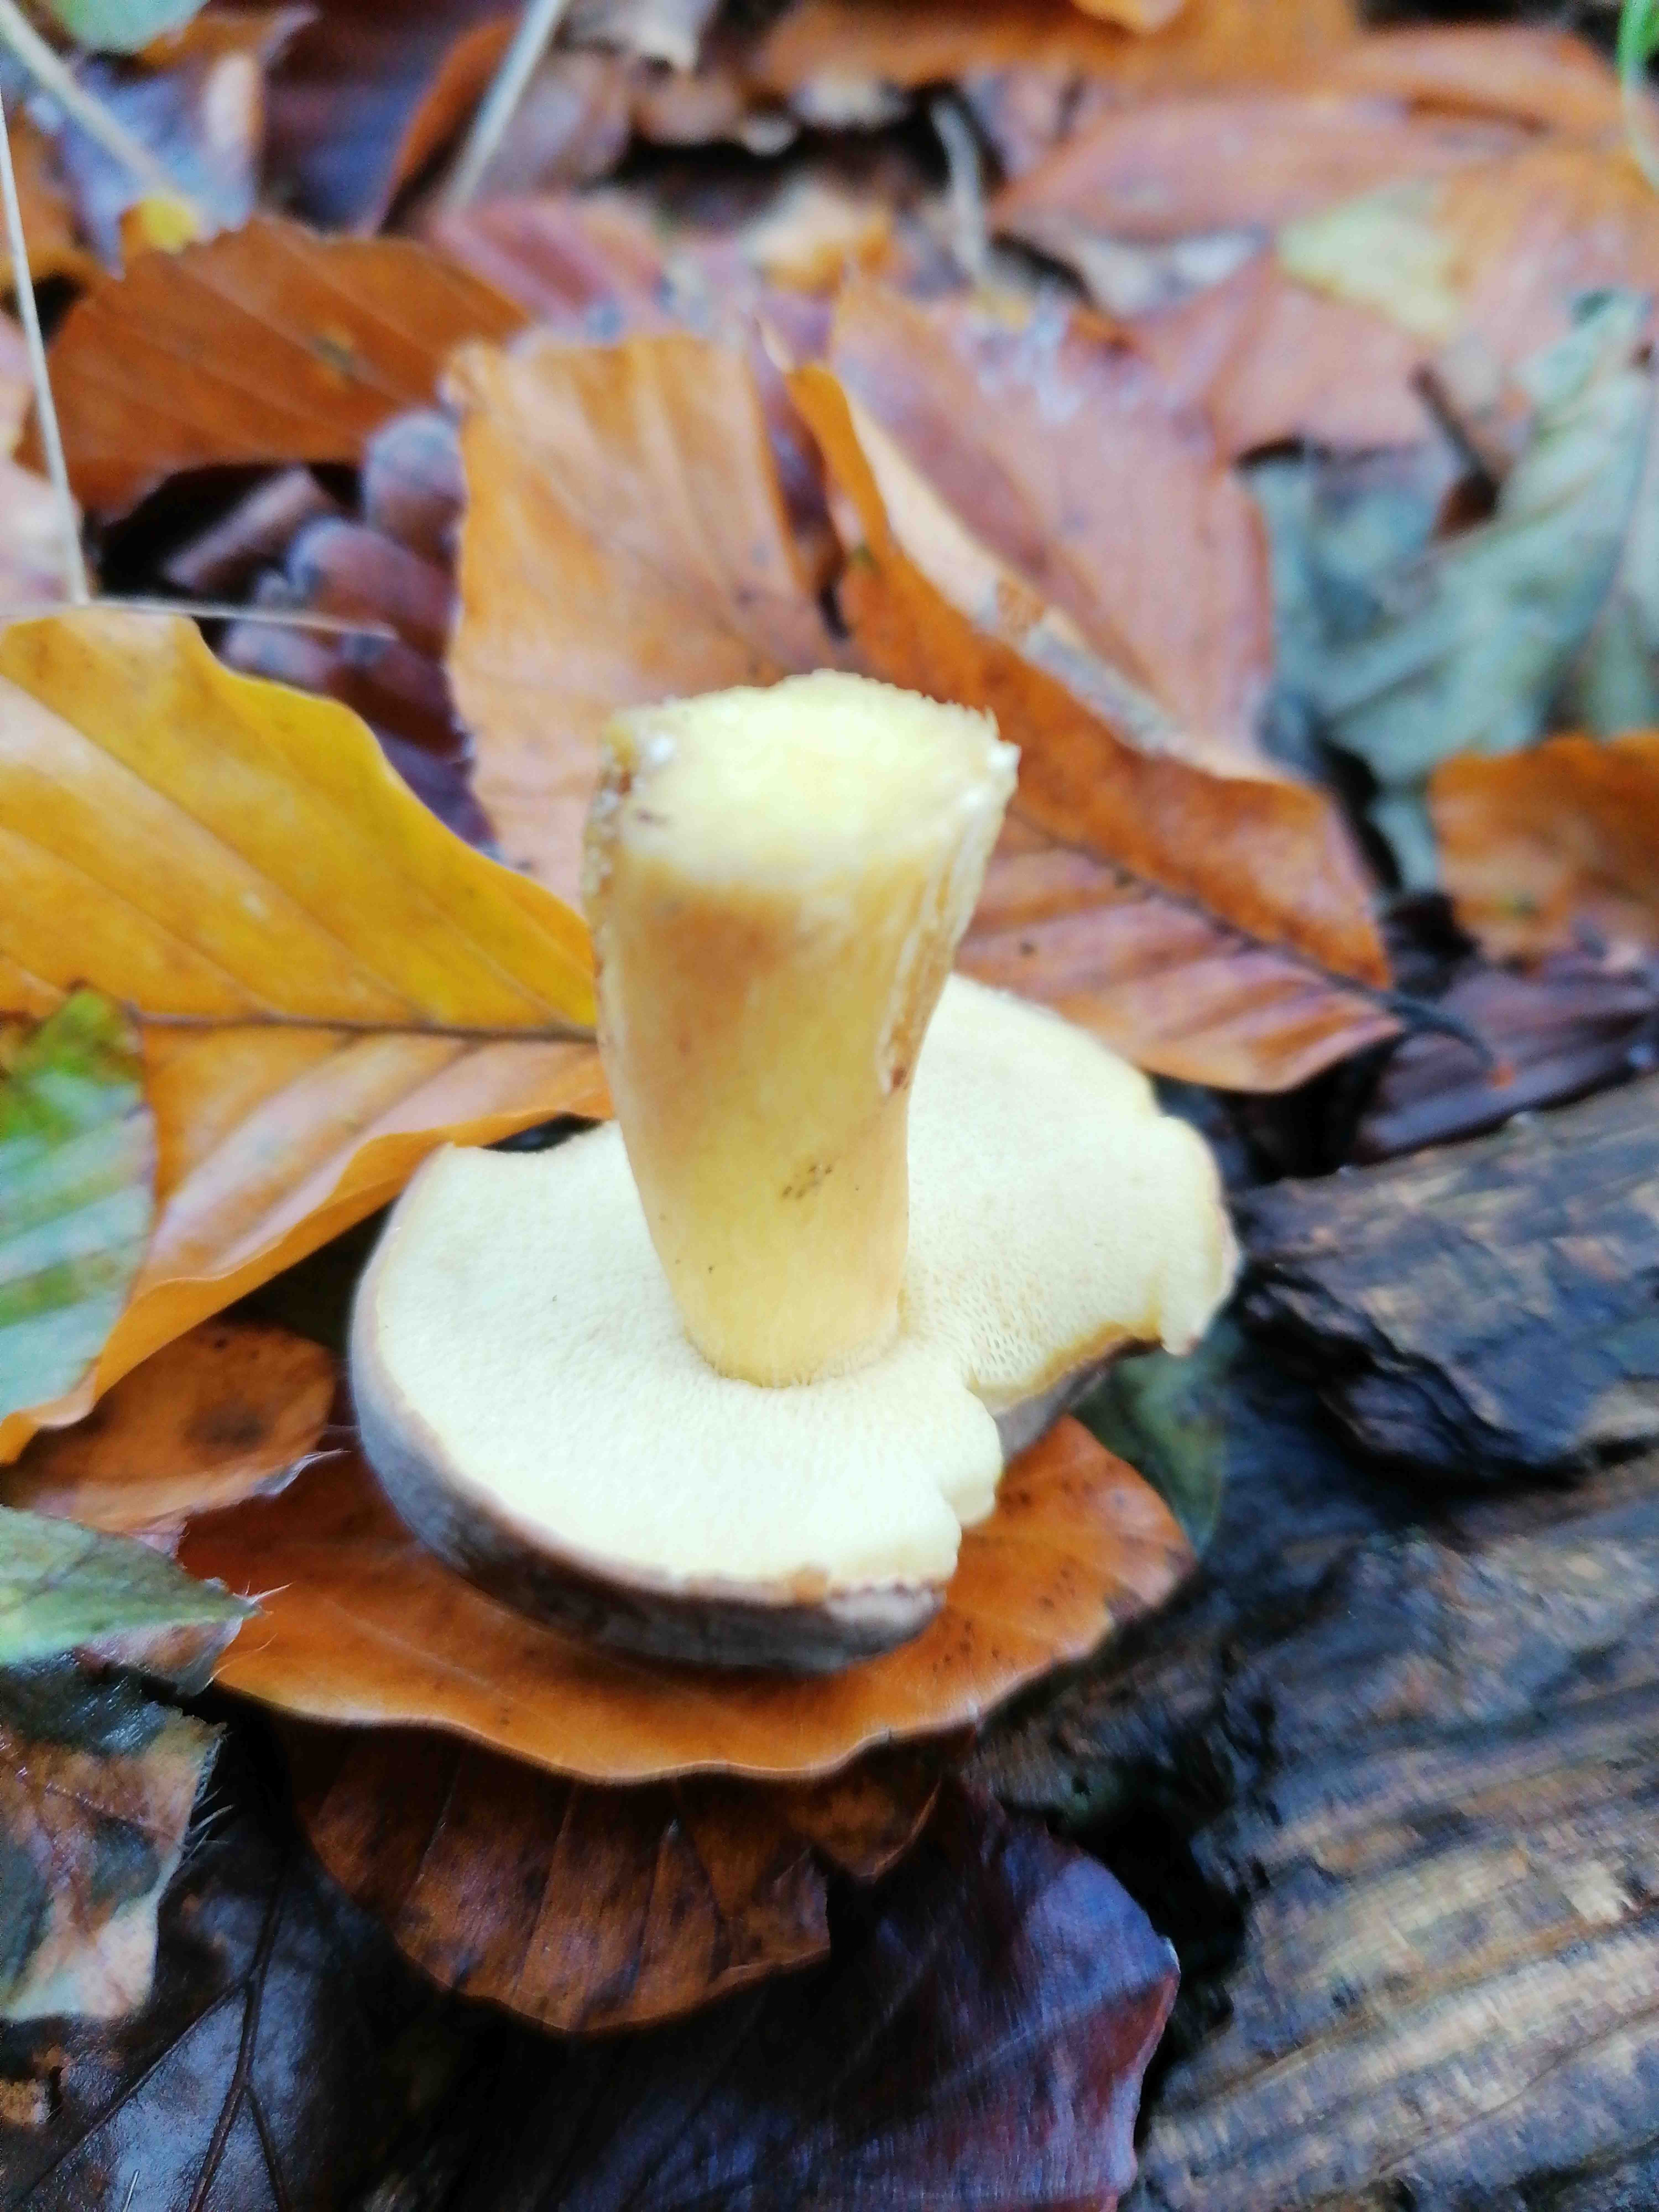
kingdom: Fungi
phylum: Basidiomycota
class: Agaricomycetes
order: Boletales
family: Boletaceae
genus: Xerocomellus
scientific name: Xerocomellus pruinatus
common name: dugget rørhat
